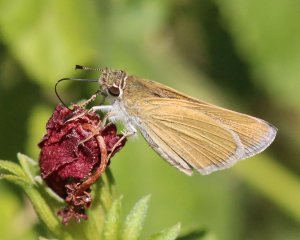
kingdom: Animalia
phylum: Arthropoda
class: Insecta
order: Lepidoptera
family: Hesperiidae
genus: Nastra
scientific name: Nastra julia
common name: Julia's Skipper
